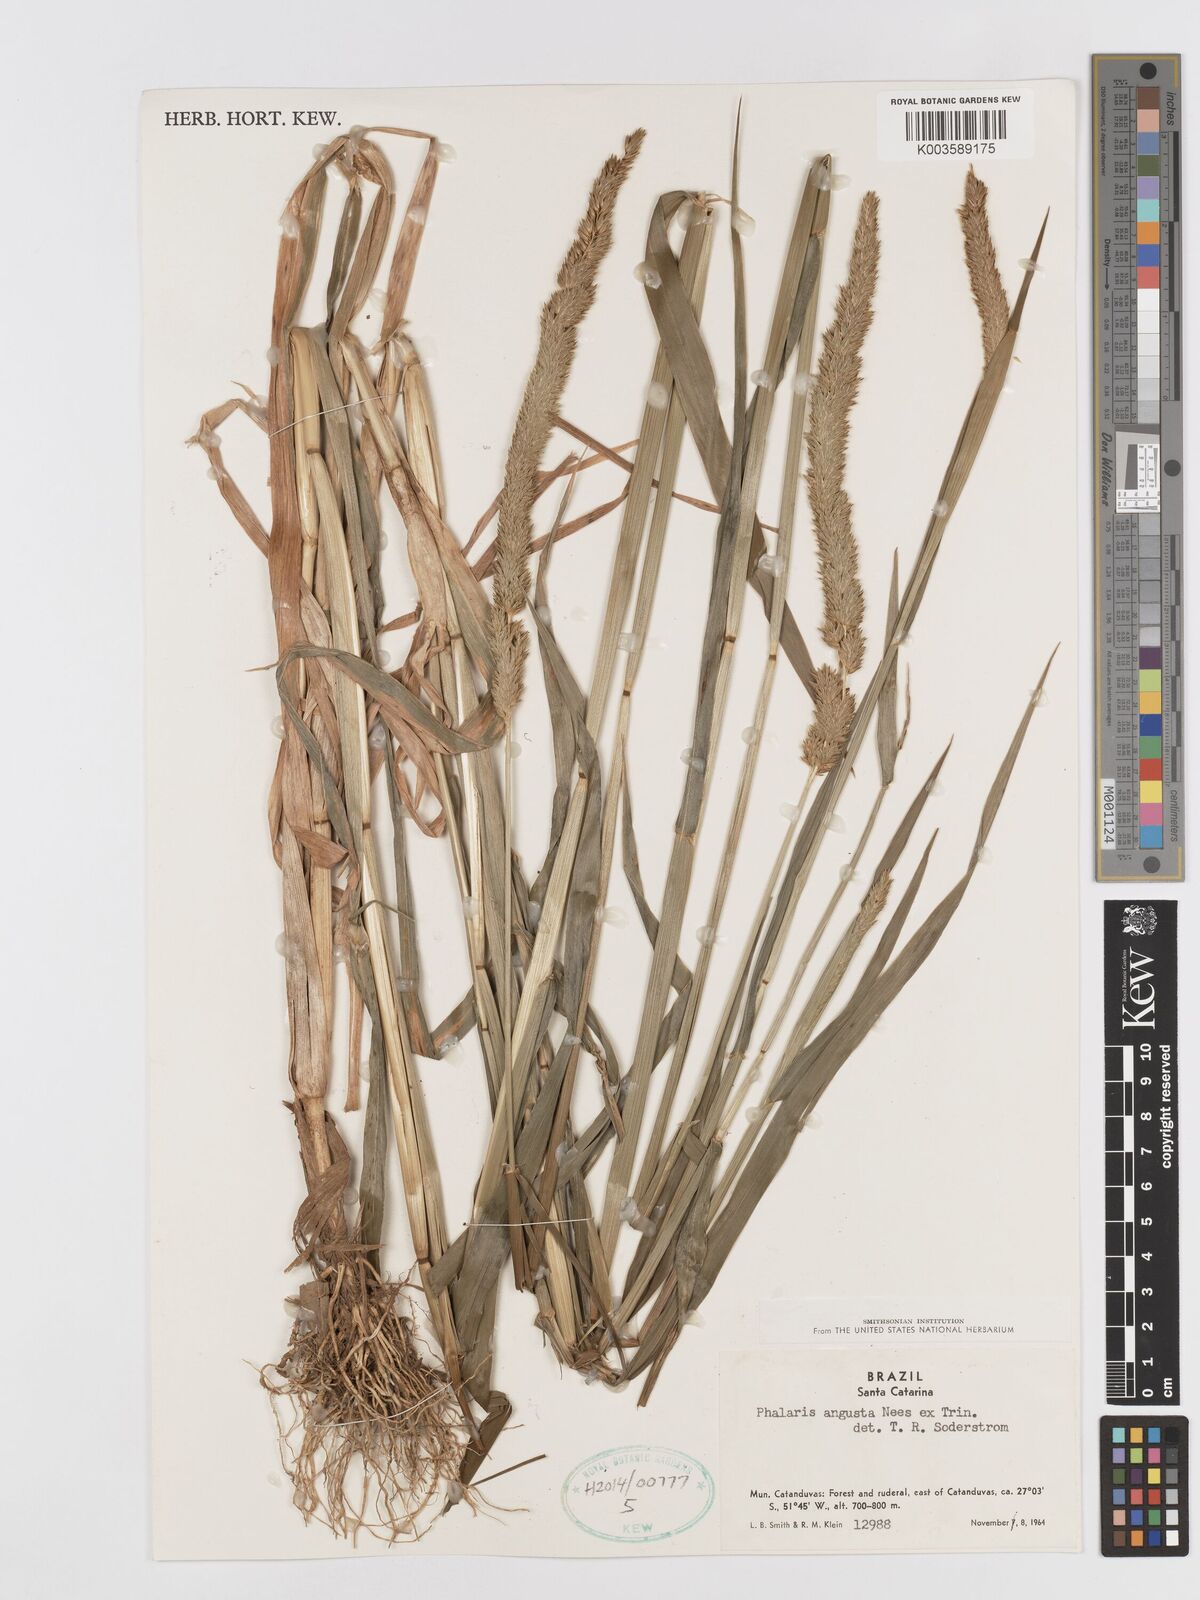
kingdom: Plantae
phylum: Tracheophyta
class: Liliopsida
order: Poales
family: Poaceae
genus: Phalaris
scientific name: Phalaris angusta
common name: Narrow canary grass
